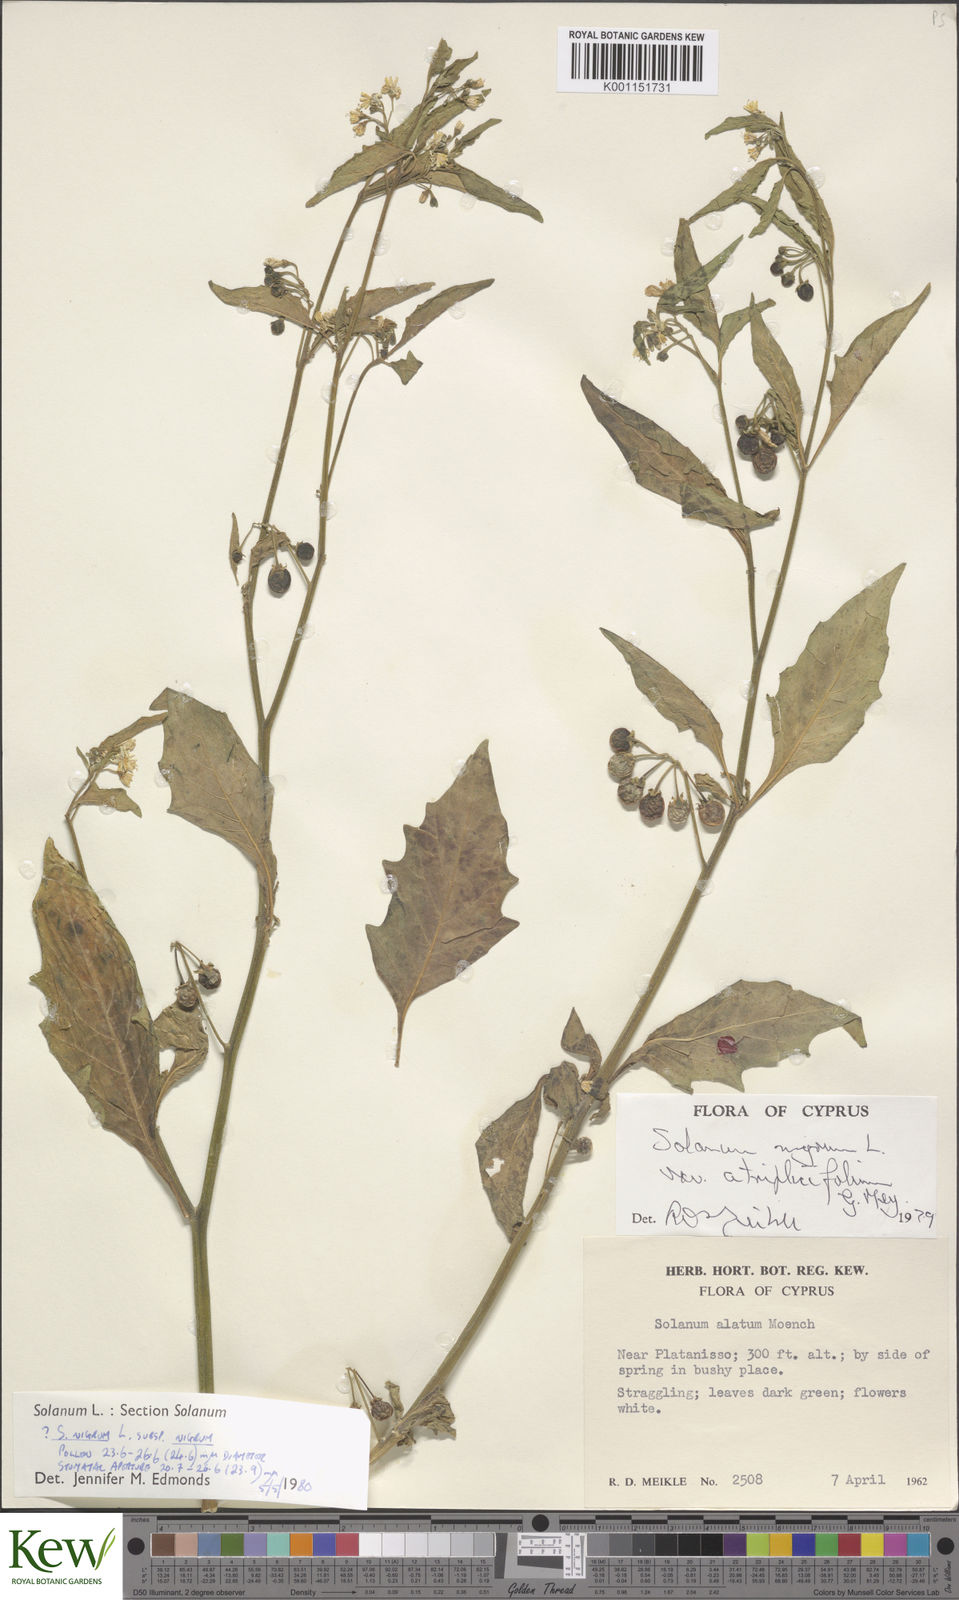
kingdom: Plantae
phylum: Tracheophyta
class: Magnoliopsida
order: Solanales
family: Solanaceae
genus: Solanum
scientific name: Solanum nigrum
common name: Black nightshade
